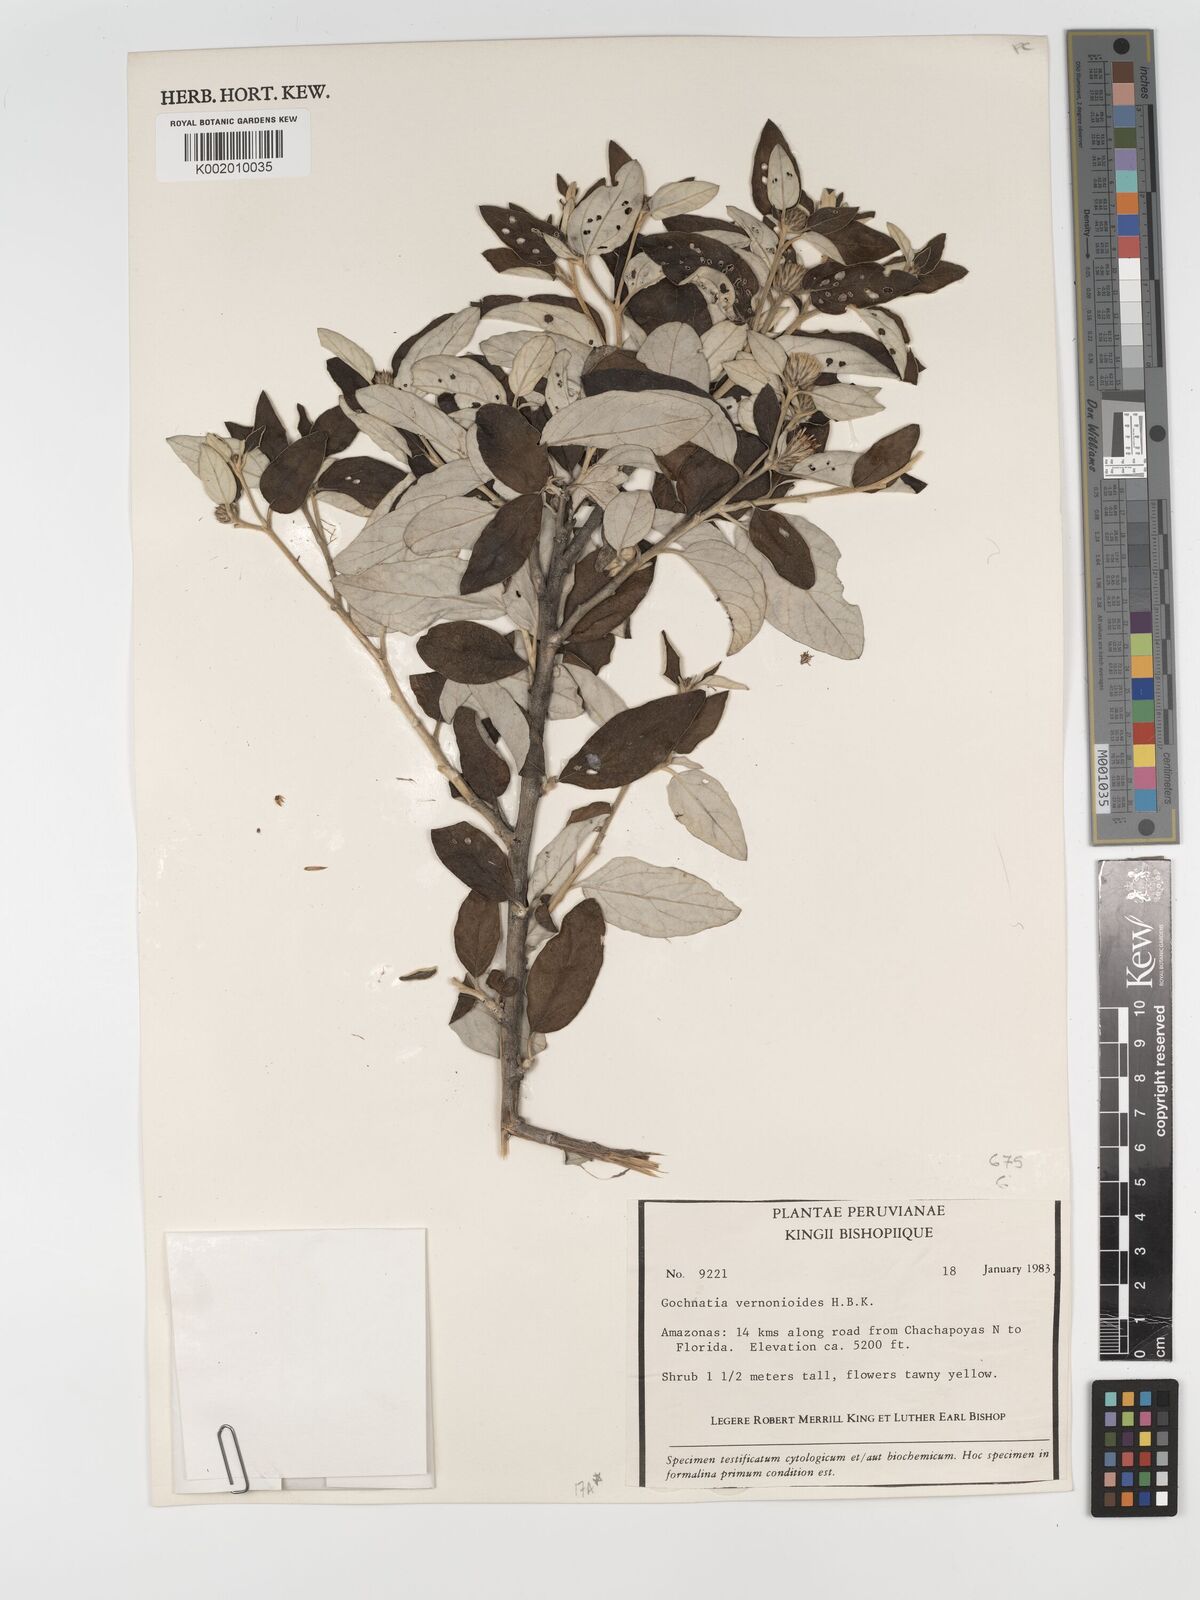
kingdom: Plantae
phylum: Tracheophyta
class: Magnoliopsida
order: Asterales
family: Asteraceae
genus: Gochnatia
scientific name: Gochnatia vernonioides
